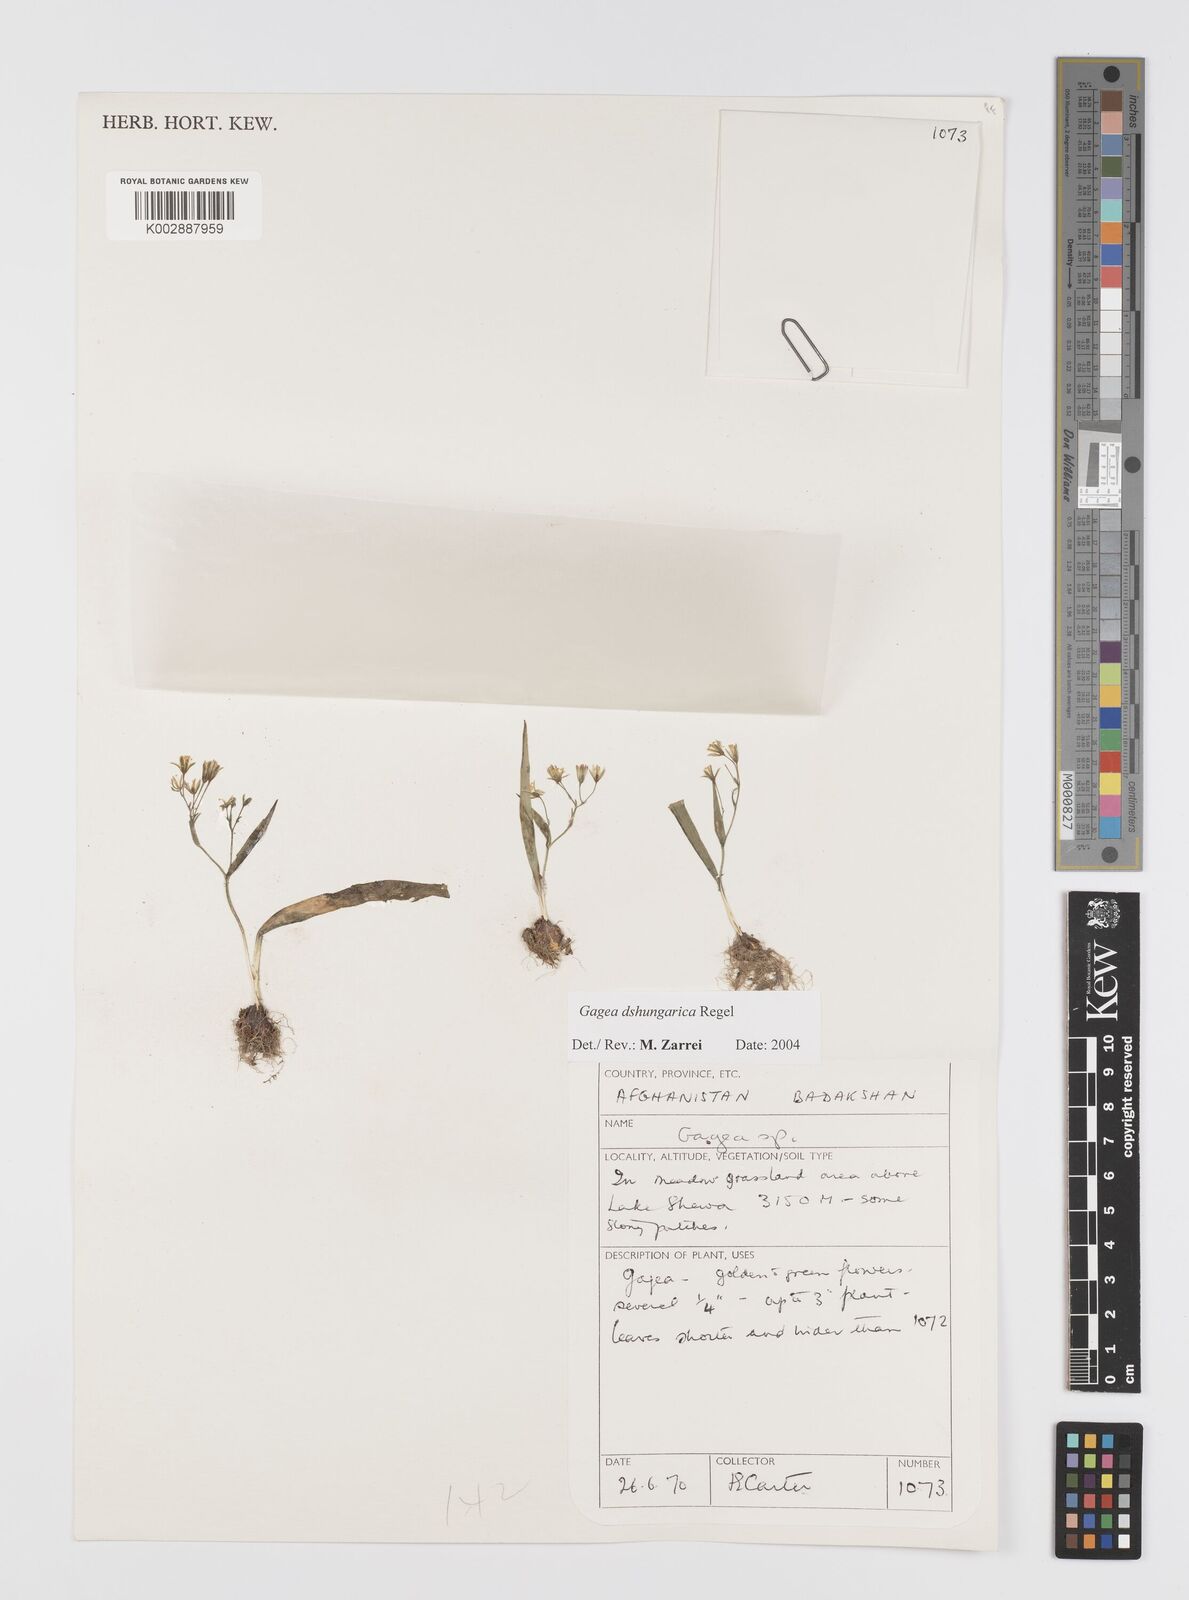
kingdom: Plantae
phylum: Tracheophyta
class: Liliopsida
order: Liliales
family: Liliaceae
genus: Gagea
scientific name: Gagea dschungarica
